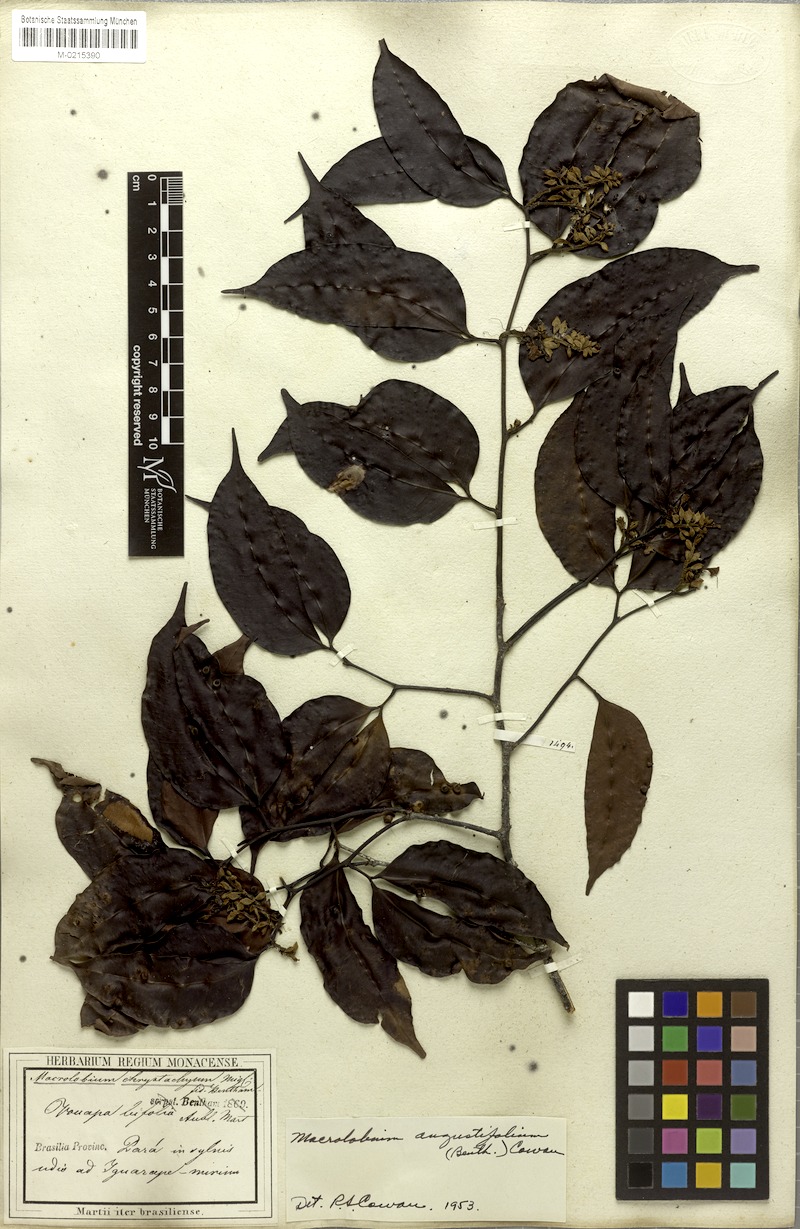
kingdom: Plantae
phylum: Tracheophyta
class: Magnoliopsida
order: Fabales
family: Fabaceae
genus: Macrolobium
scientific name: Macrolobium angustifolium
